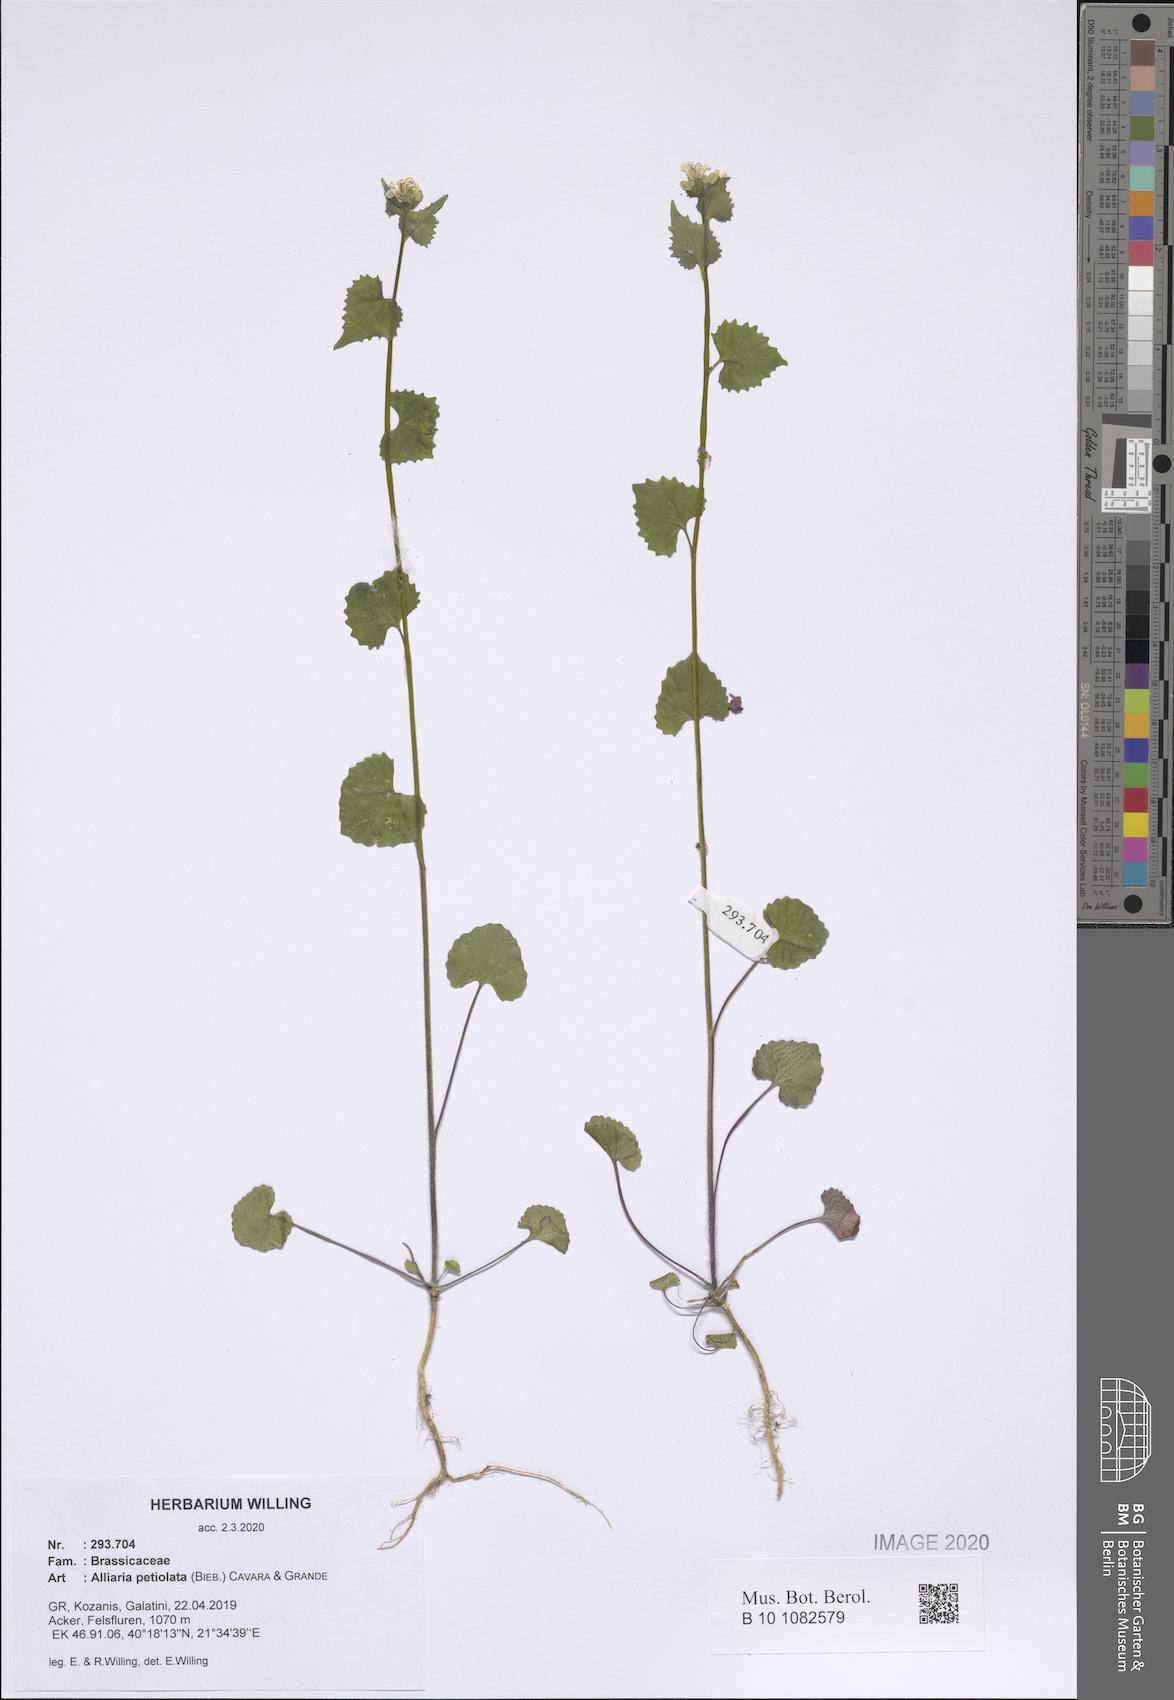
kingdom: Plantae
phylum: Tracheophyta
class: Magnoliopsida
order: Brassicales
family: Brassicaceae
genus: Alliaria
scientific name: Alliaria petiolata
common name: Garlic mustard
